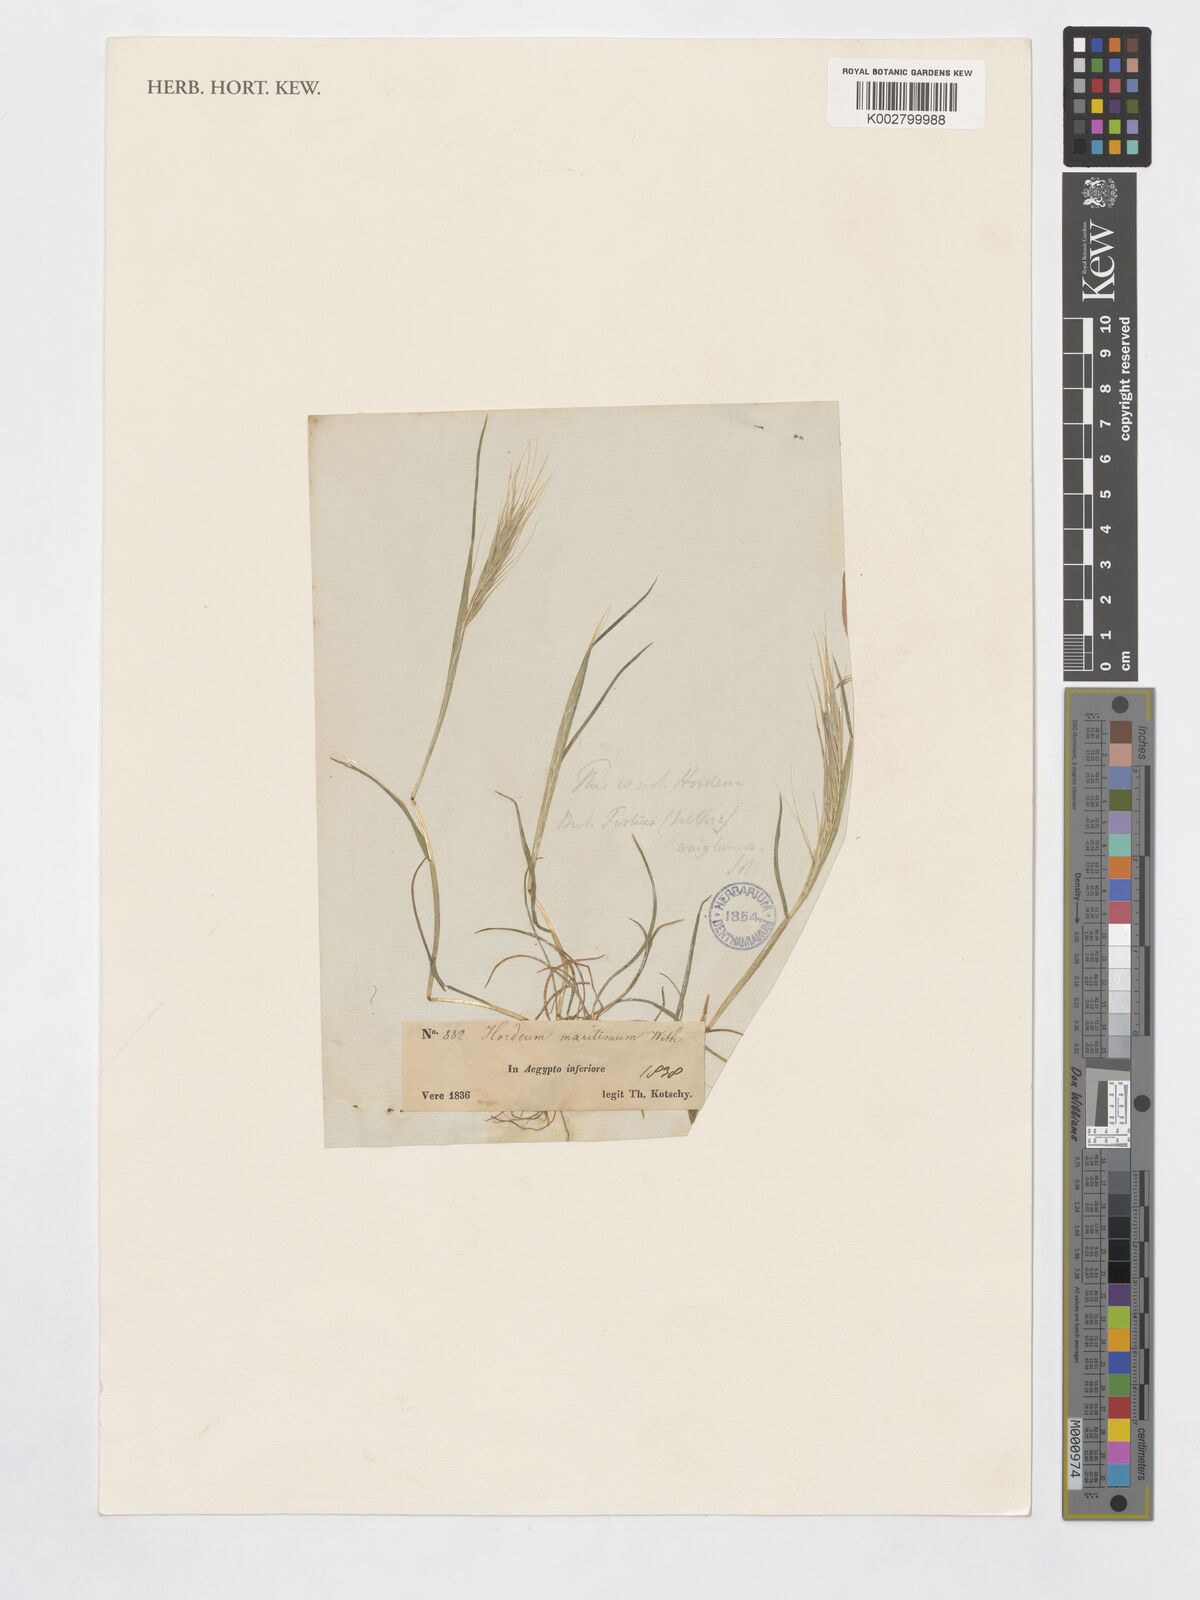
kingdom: Plantae
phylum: Tracheophyta
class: Liliopsida
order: Poales
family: Poaceae
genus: Festuca
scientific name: Festuca
